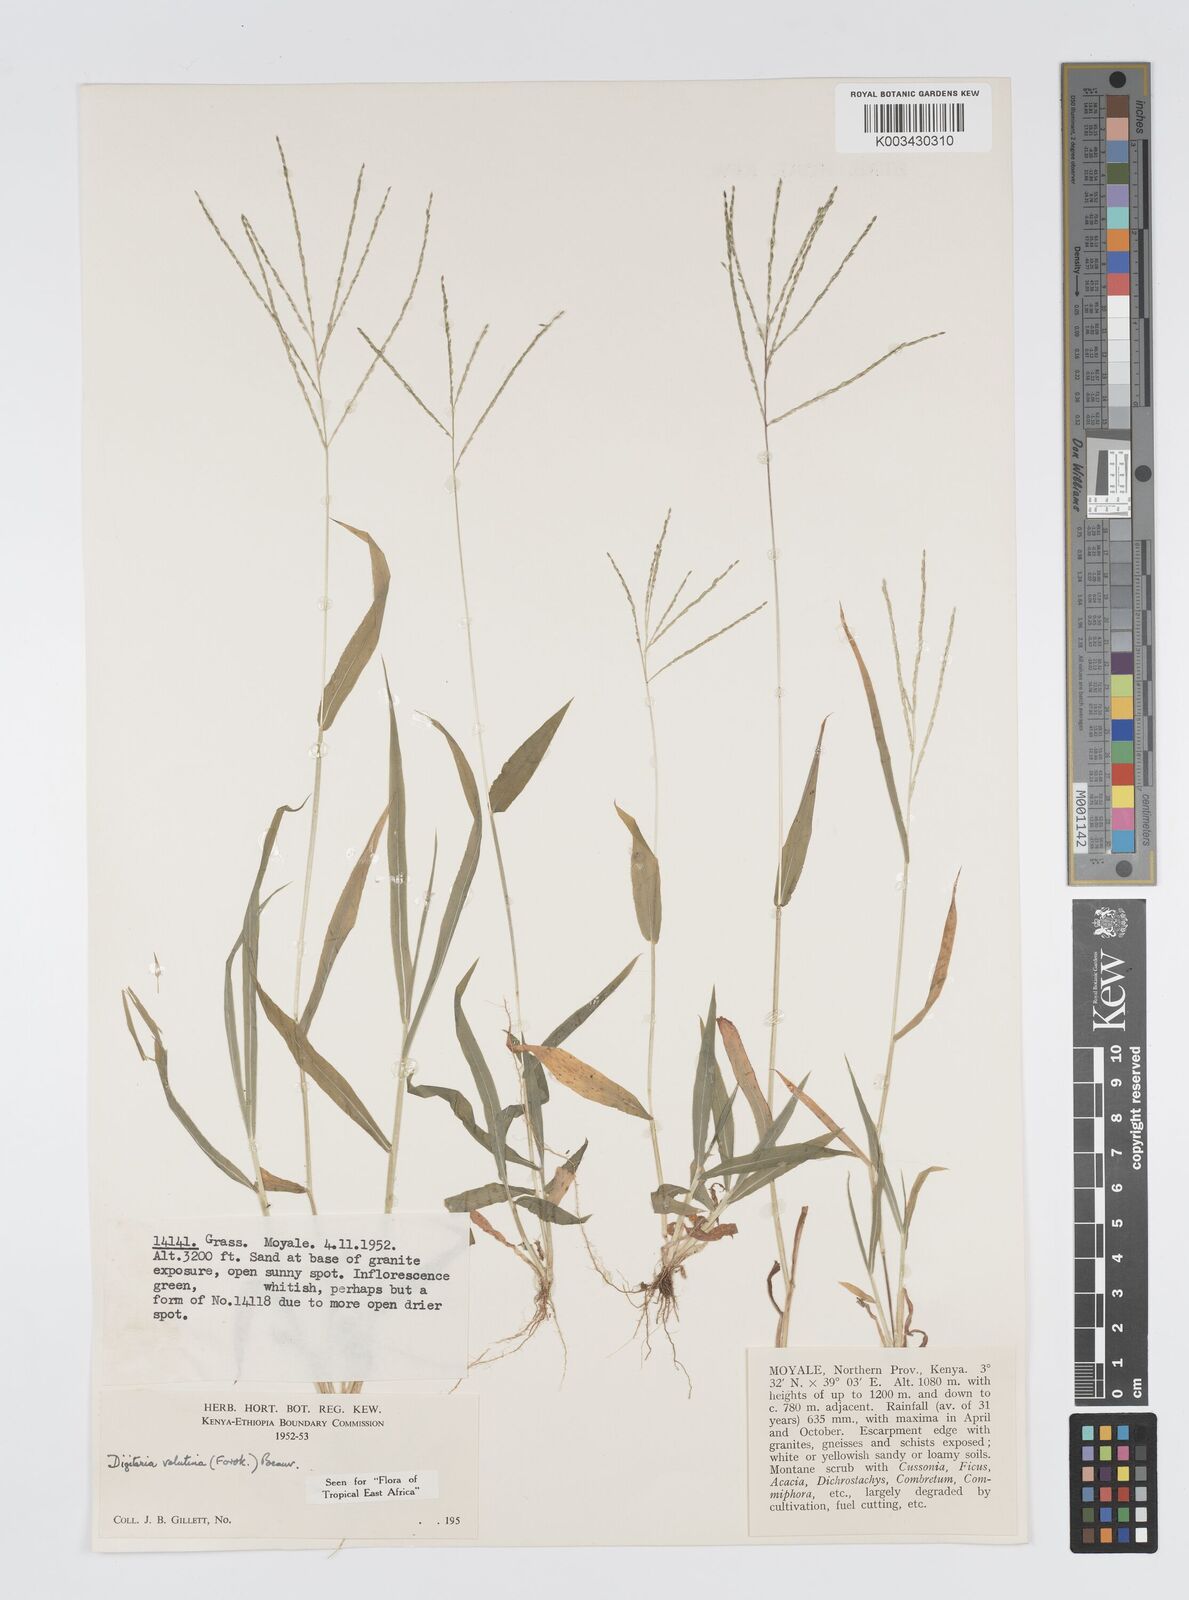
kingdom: Plantae
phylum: Tracheophyta
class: Liliopsida
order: Poales
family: Poaceae
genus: Digitaria
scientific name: Digitaria velutina
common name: Long-plume finger grass
